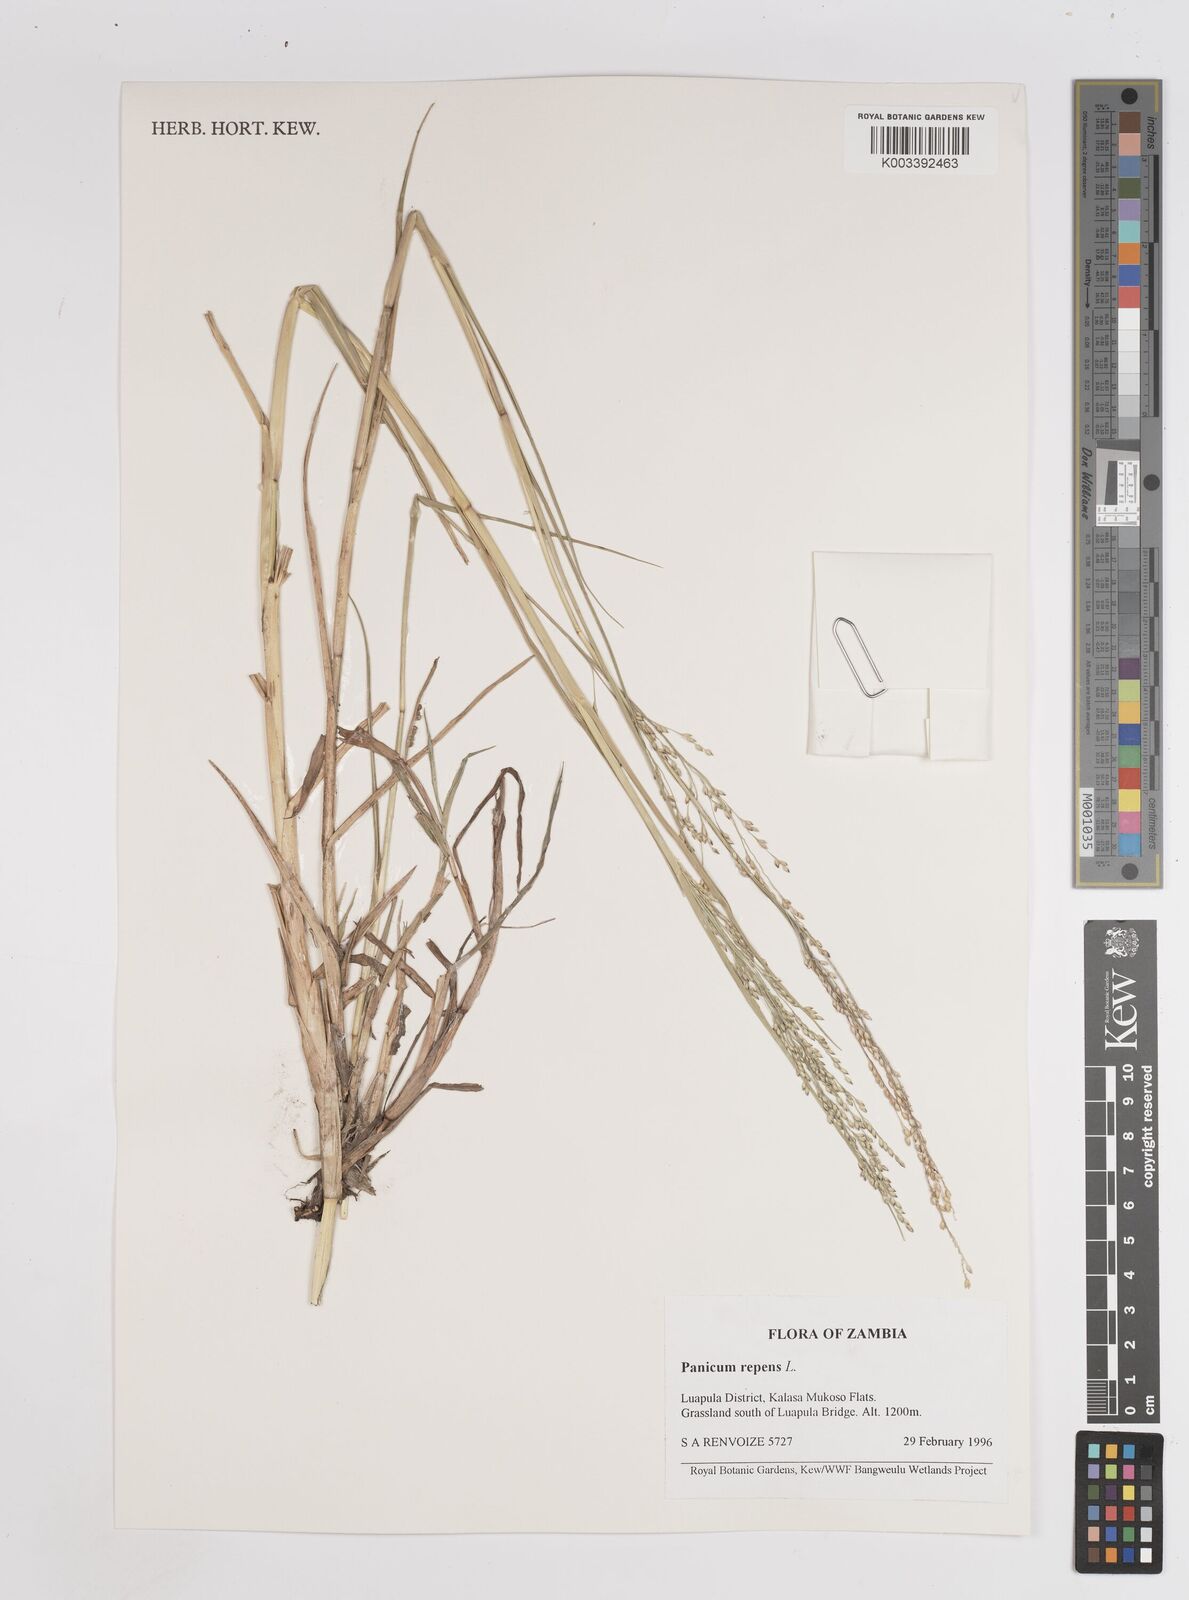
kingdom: Plantae
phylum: Tracheophyta
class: Liliopsida
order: Poales
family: Poaceae
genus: Panicum
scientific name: Panicum repens
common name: Torpedo grass
